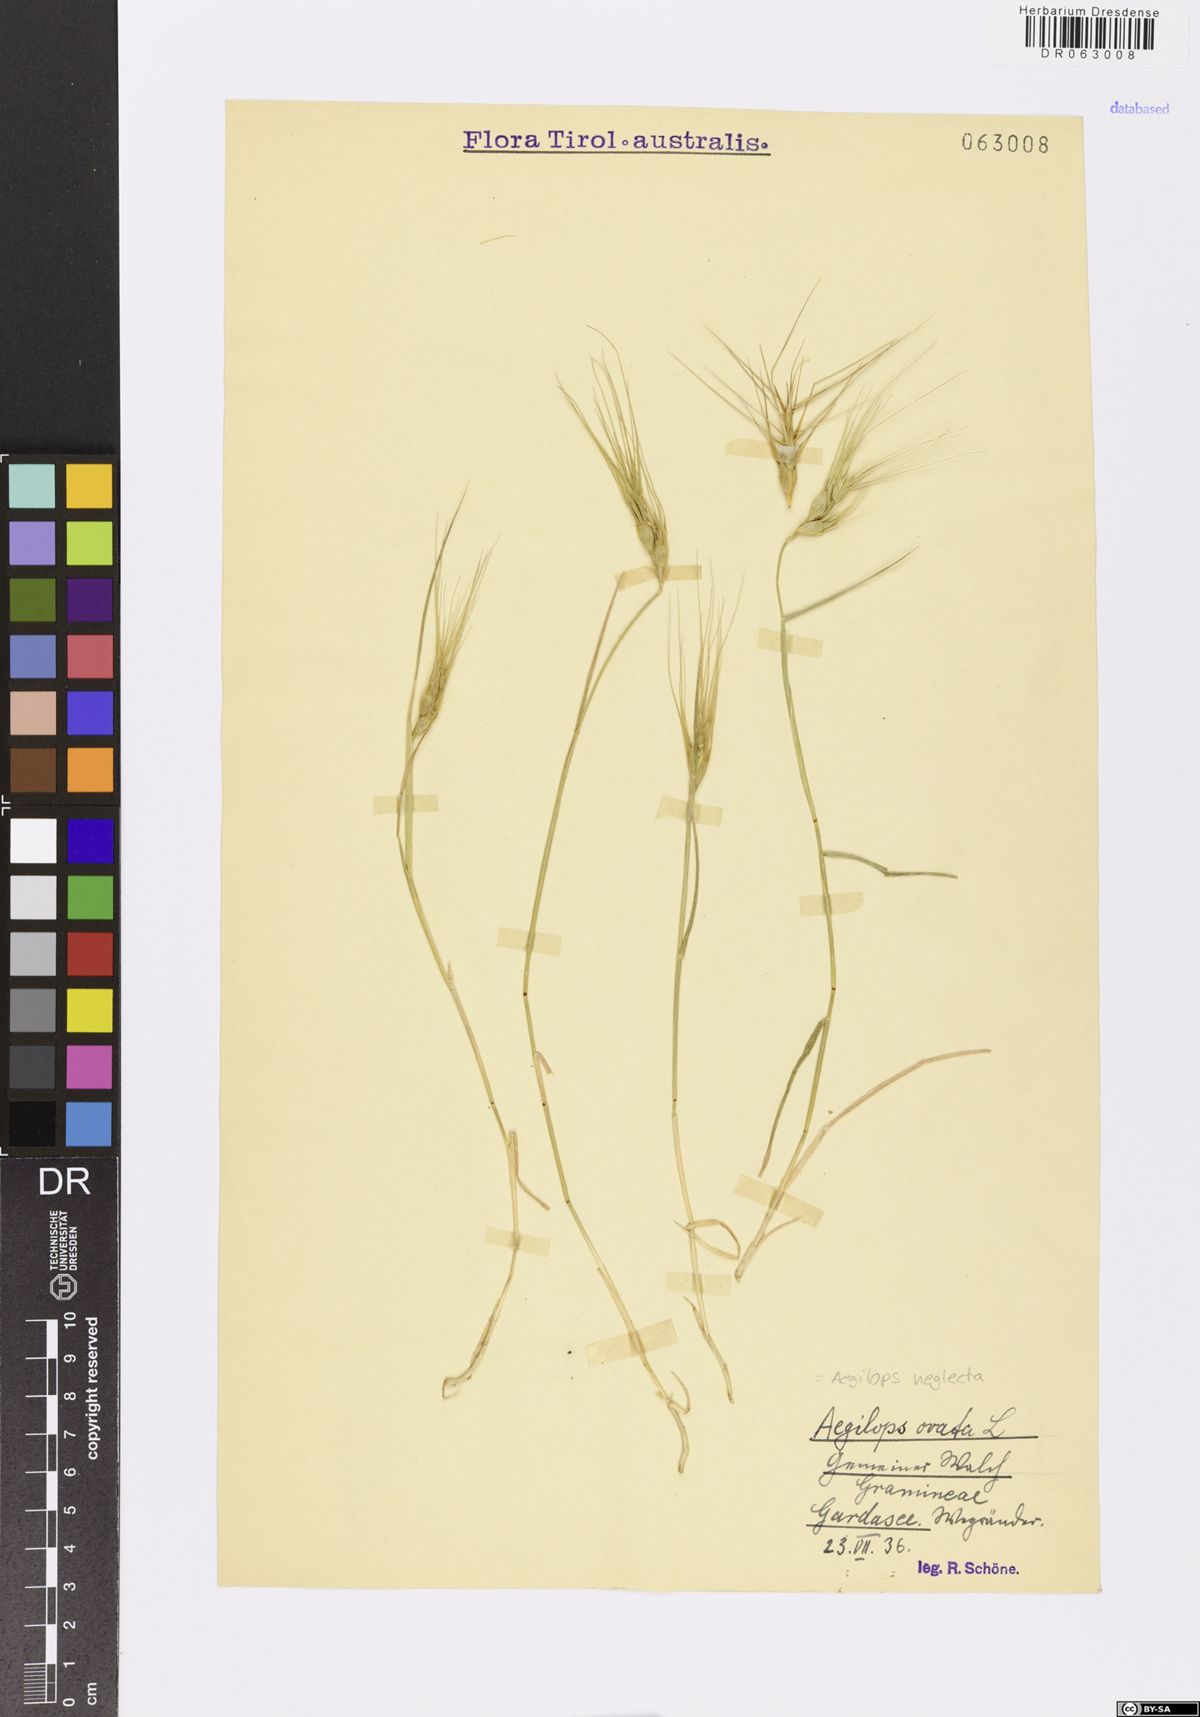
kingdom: Plantae
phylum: Tracheophyta
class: Liliopsida
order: Poales
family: Poaceae
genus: Aegilops
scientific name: Aegilops neglecta
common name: Three-awn goat grass
